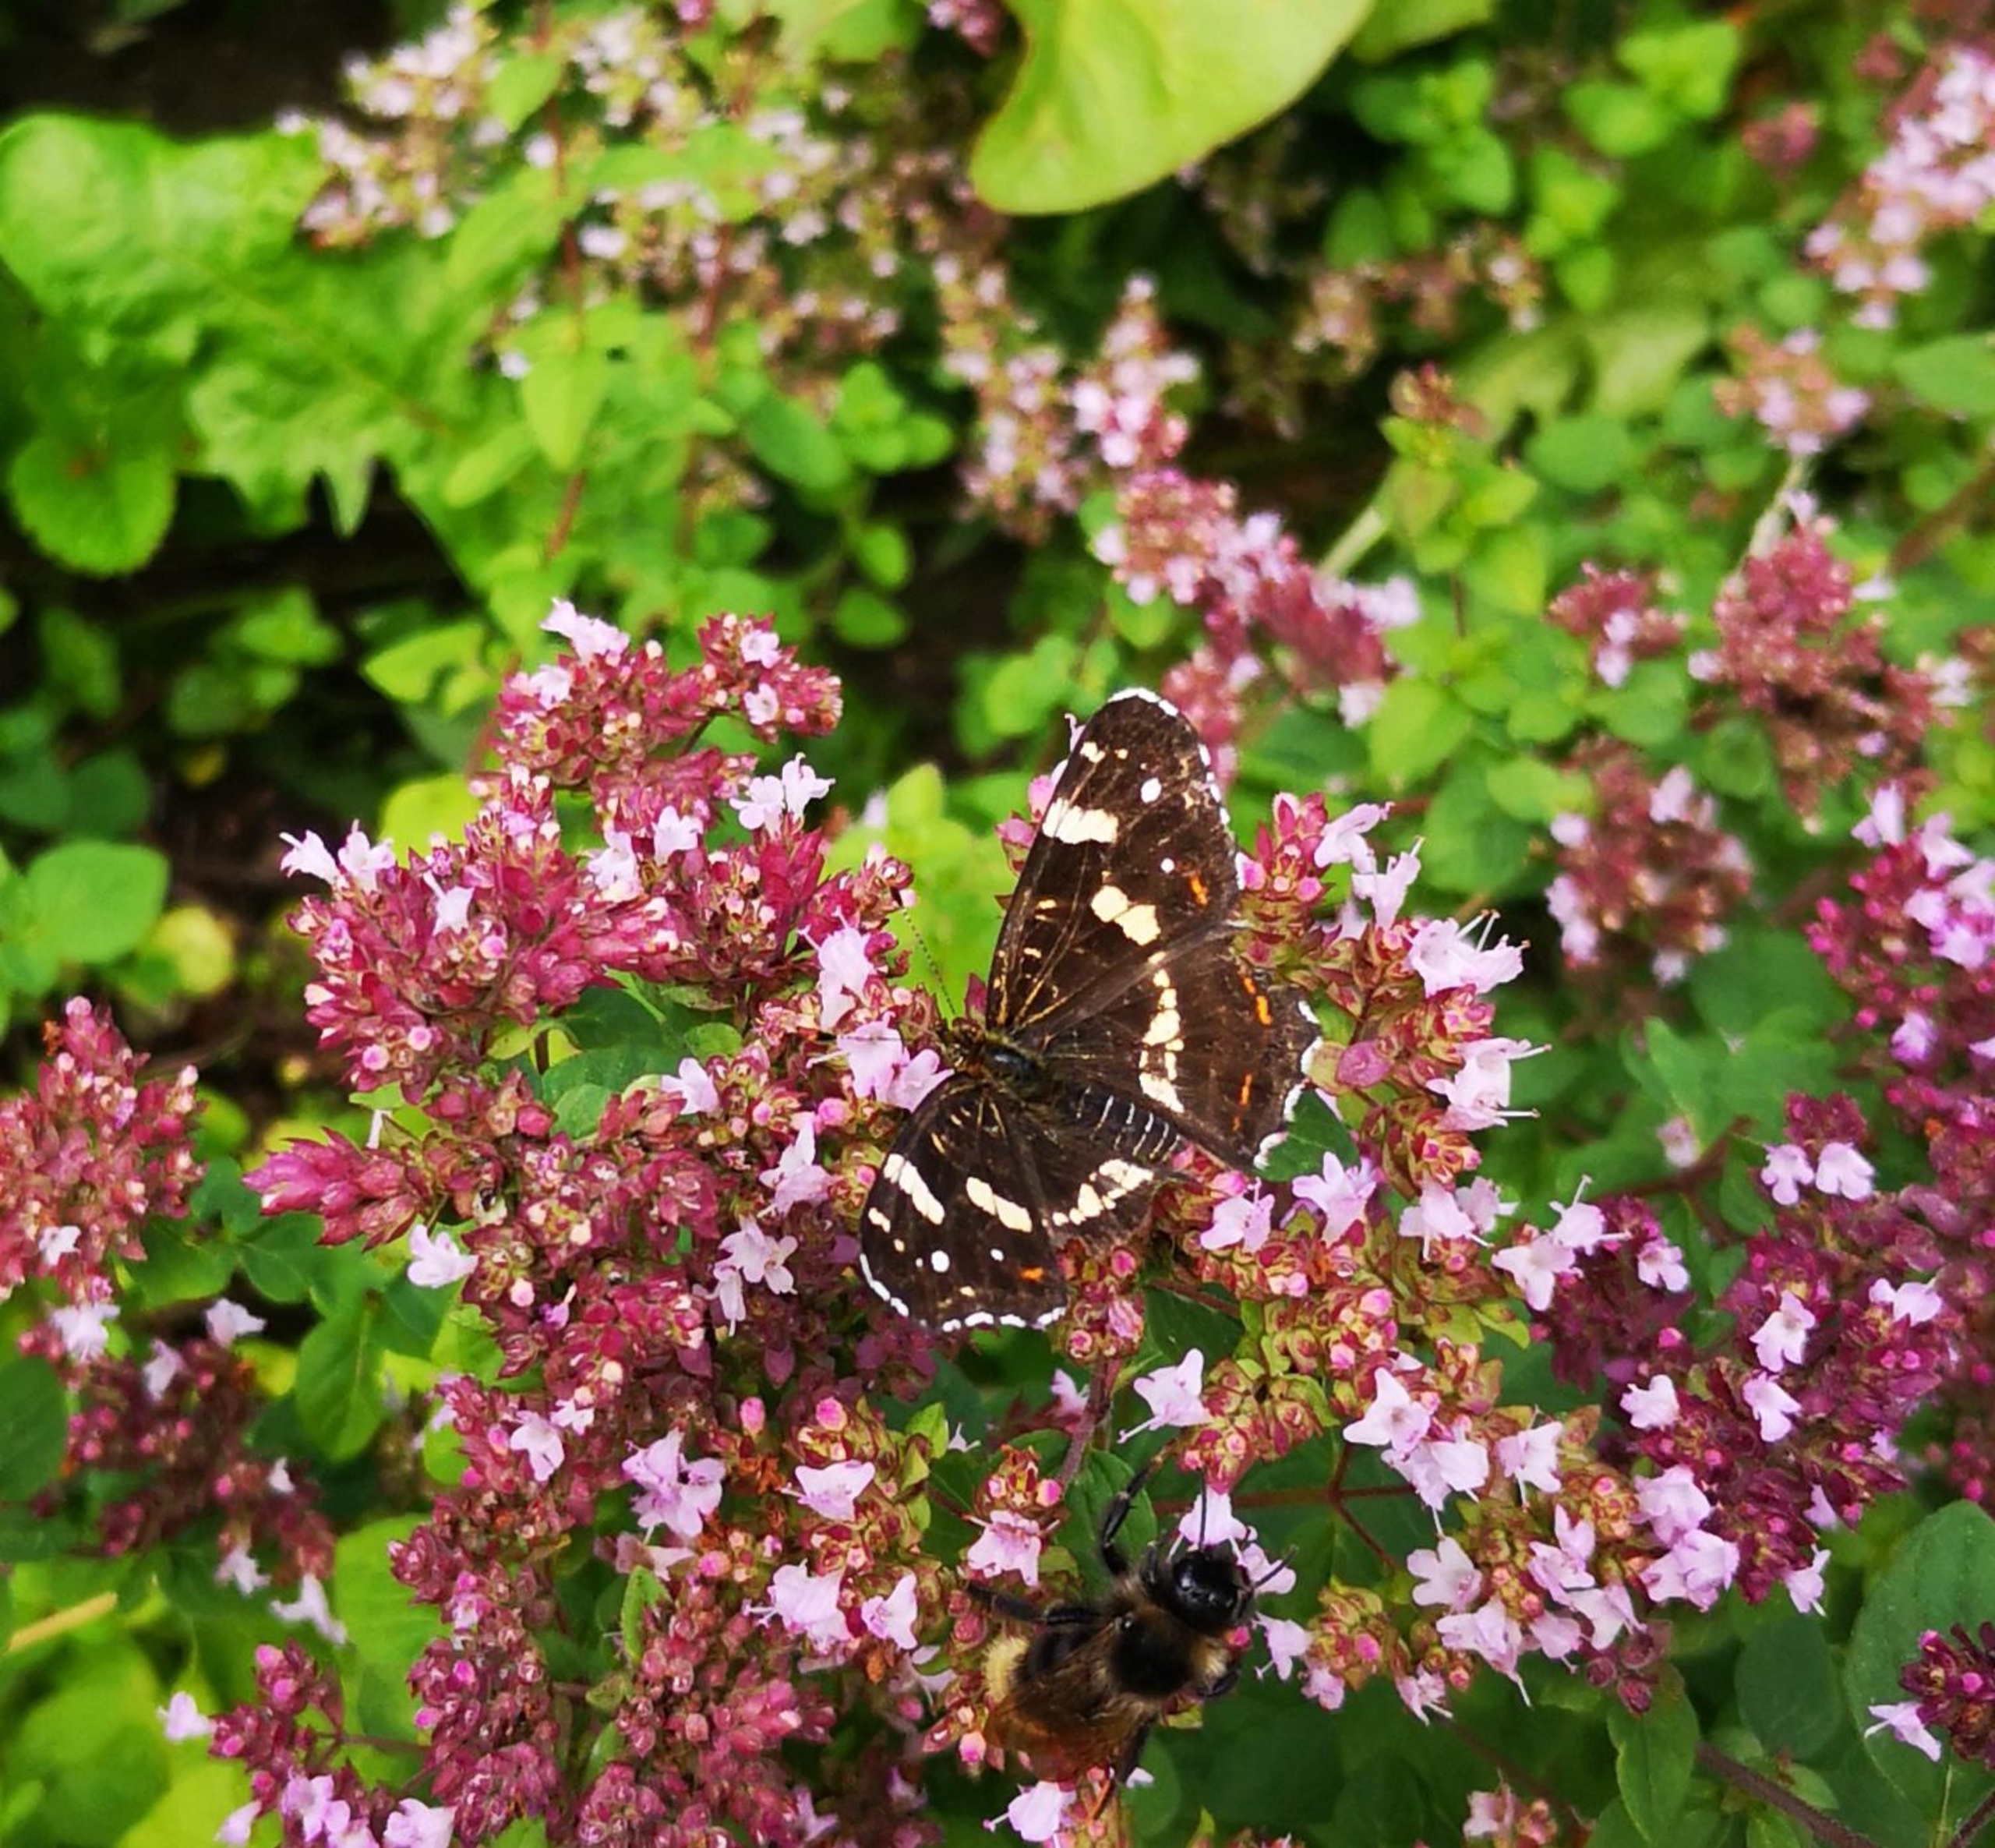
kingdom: Animalia
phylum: Arthropoda
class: Insecta
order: Lepidoptera
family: Nymphalidae
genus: Araschnia
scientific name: Araschnia levana
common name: Nældesommerfugl
